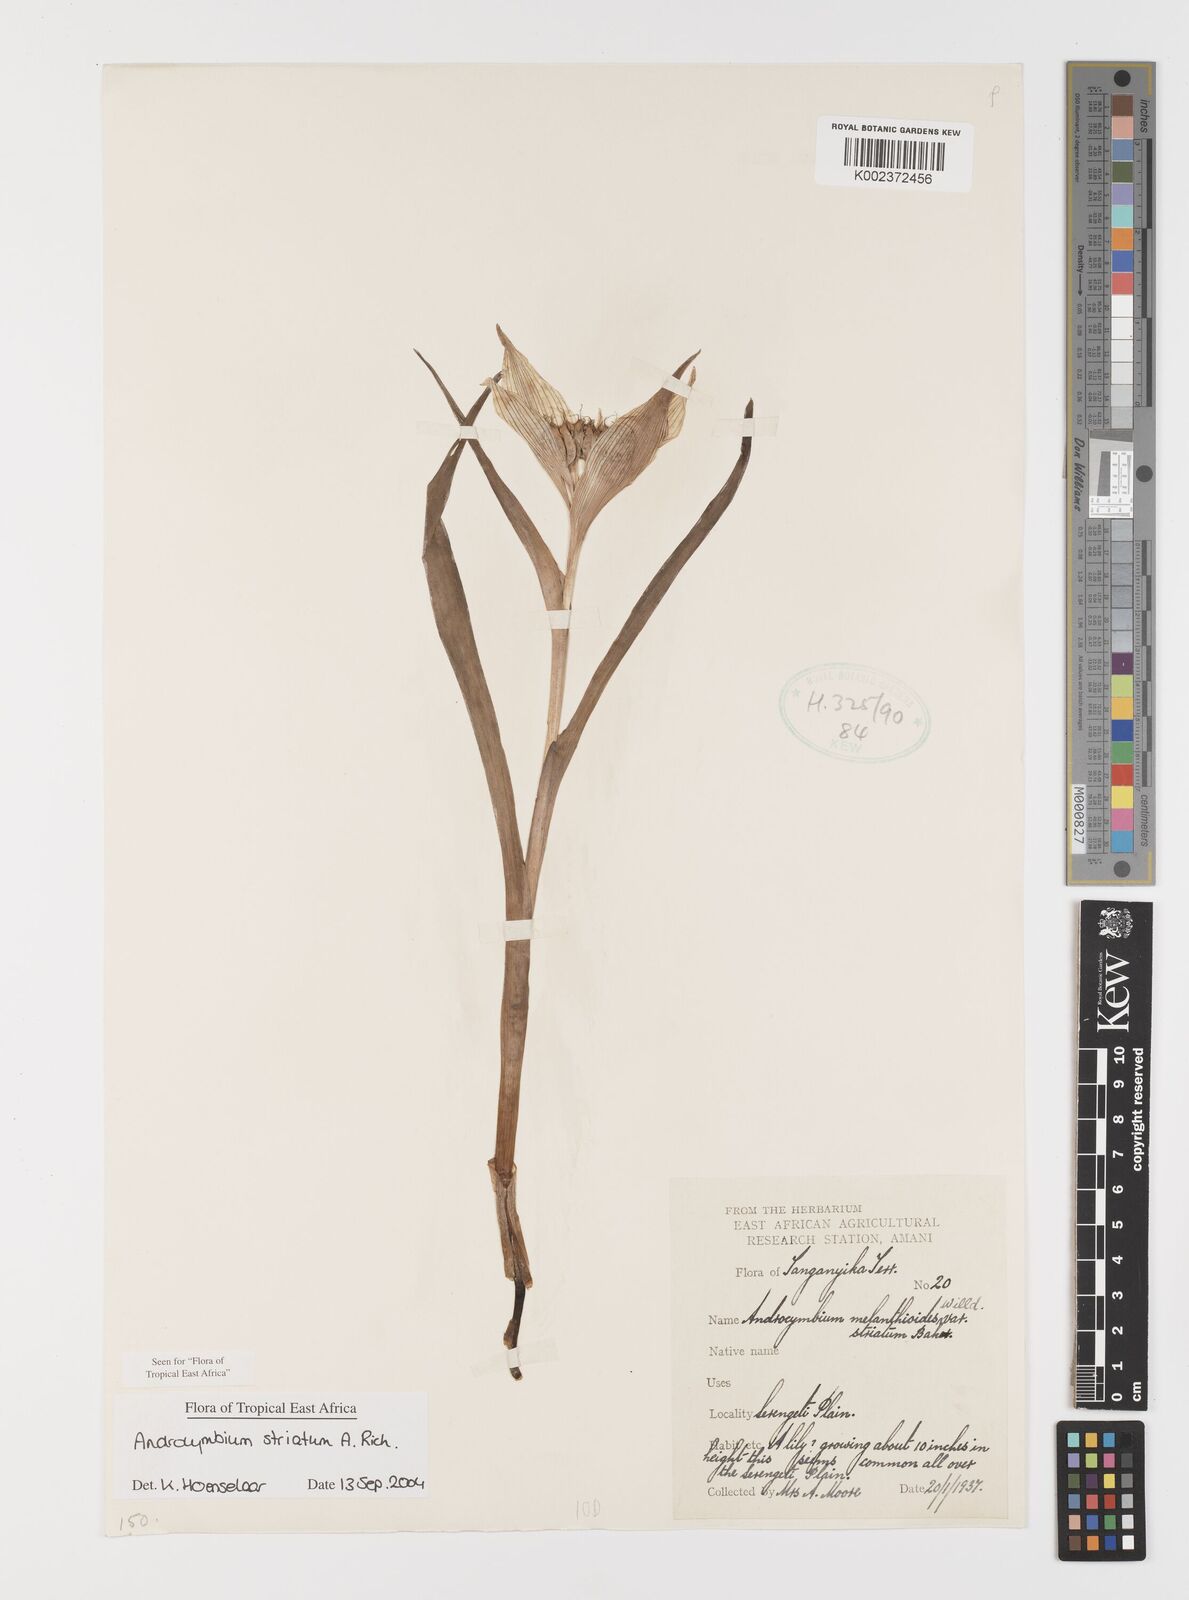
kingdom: Plantae
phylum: Tracheophyta
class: Liliopsida
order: Liliales
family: Colchicaceae
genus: Colchicum
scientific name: Colchicum striatum
